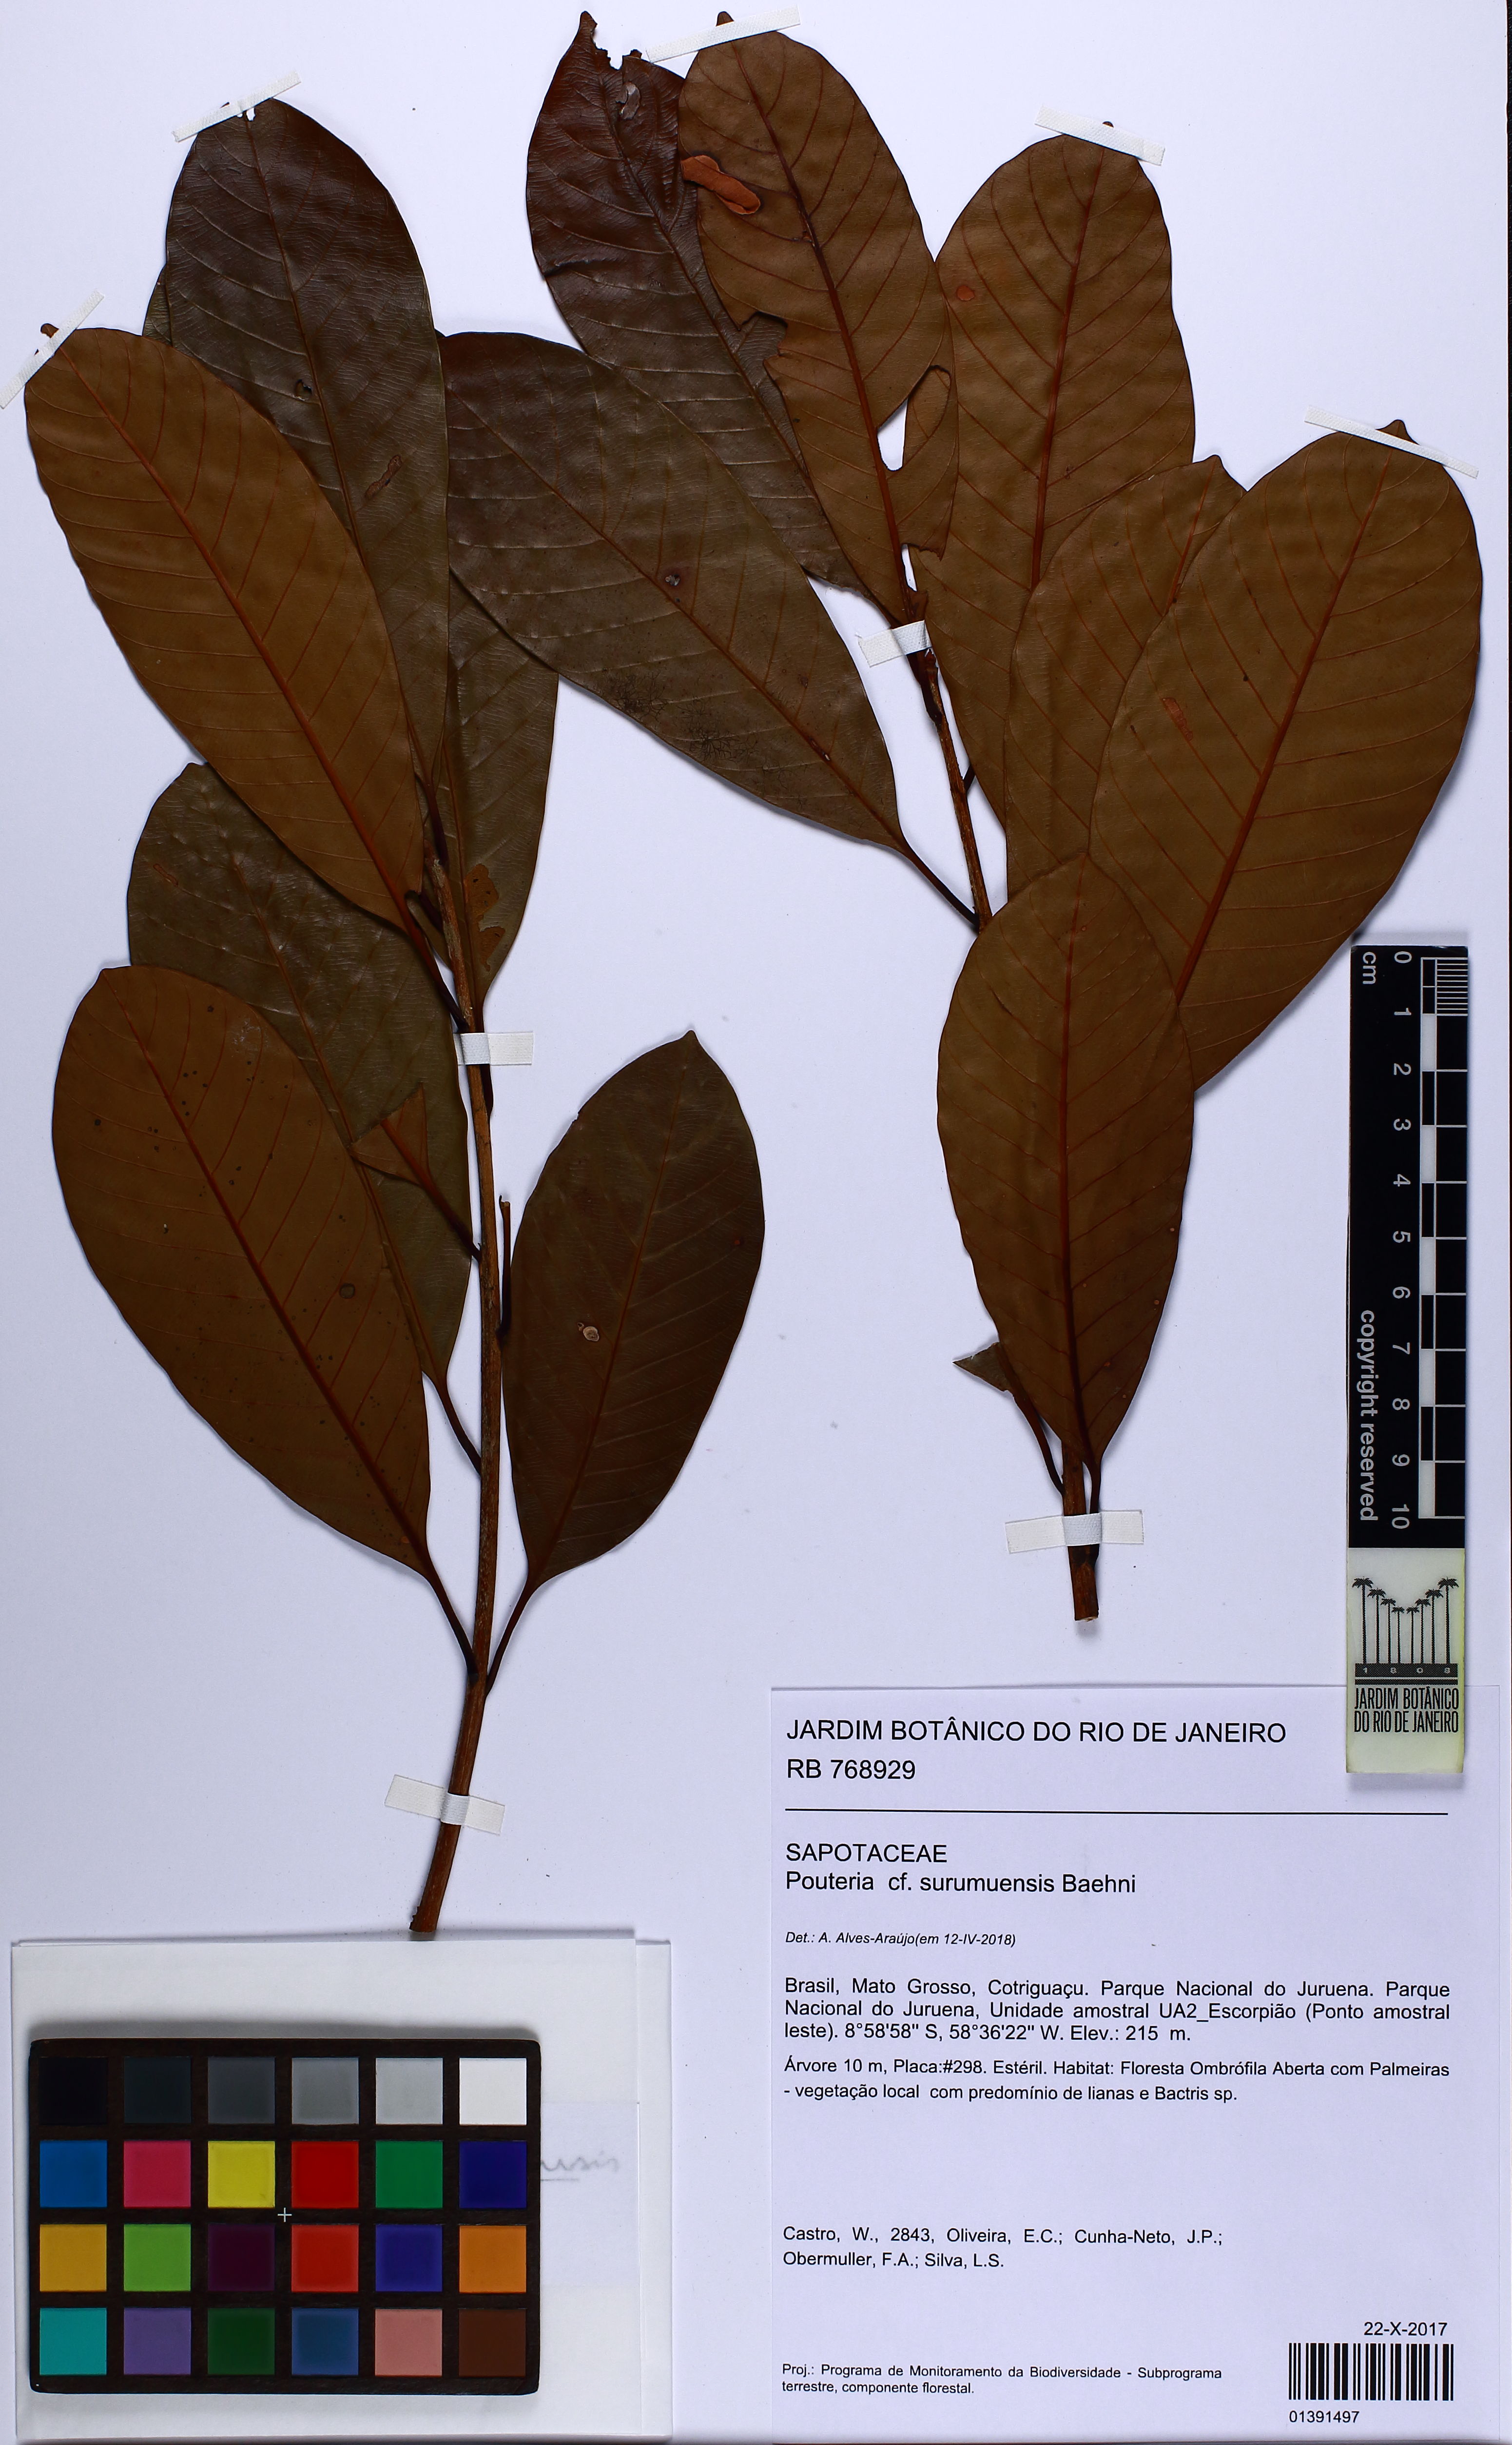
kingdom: Plantae
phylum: Tracheophyta
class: Magnoliopsida
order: Ericales
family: Sapotaceae
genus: Pouteria
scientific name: Pouteria surumuensis
